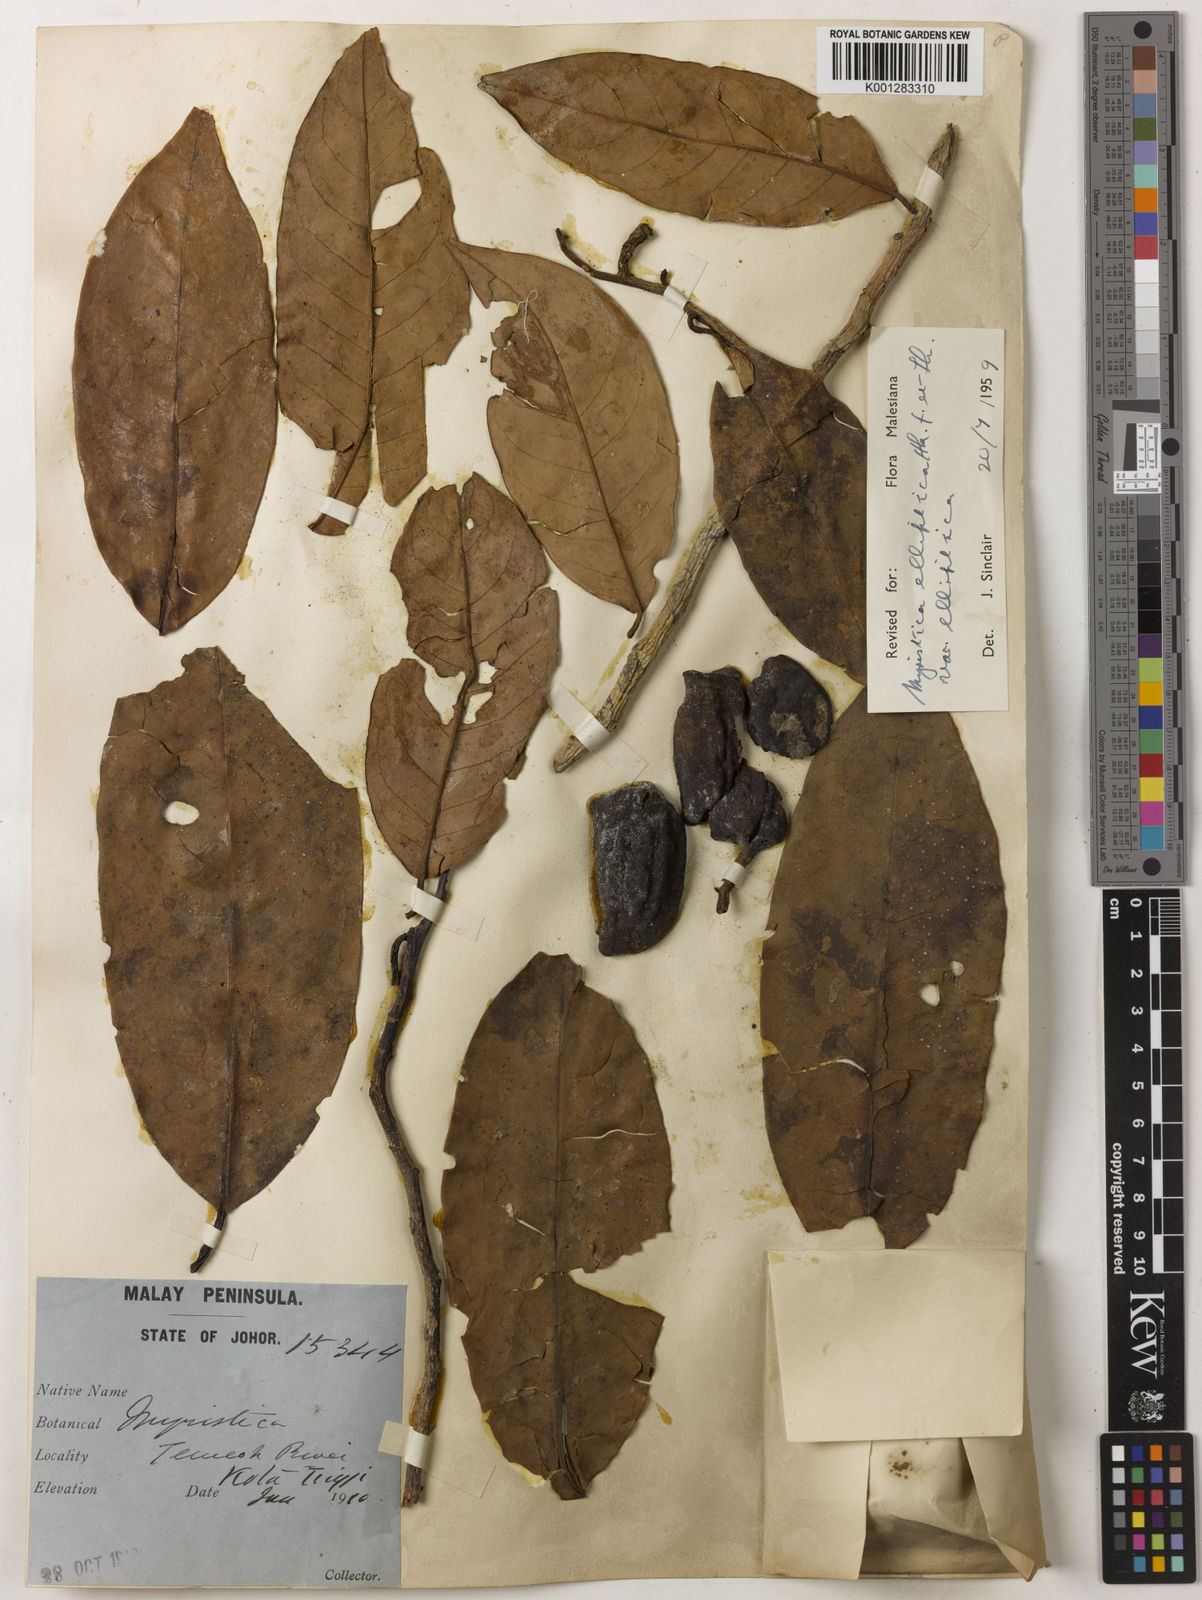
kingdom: Plantae
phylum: Tracheophyta
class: Magnoliopsida
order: Magnoliales
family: Myristicaceae
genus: Myristica
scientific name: Myristica elliptica
